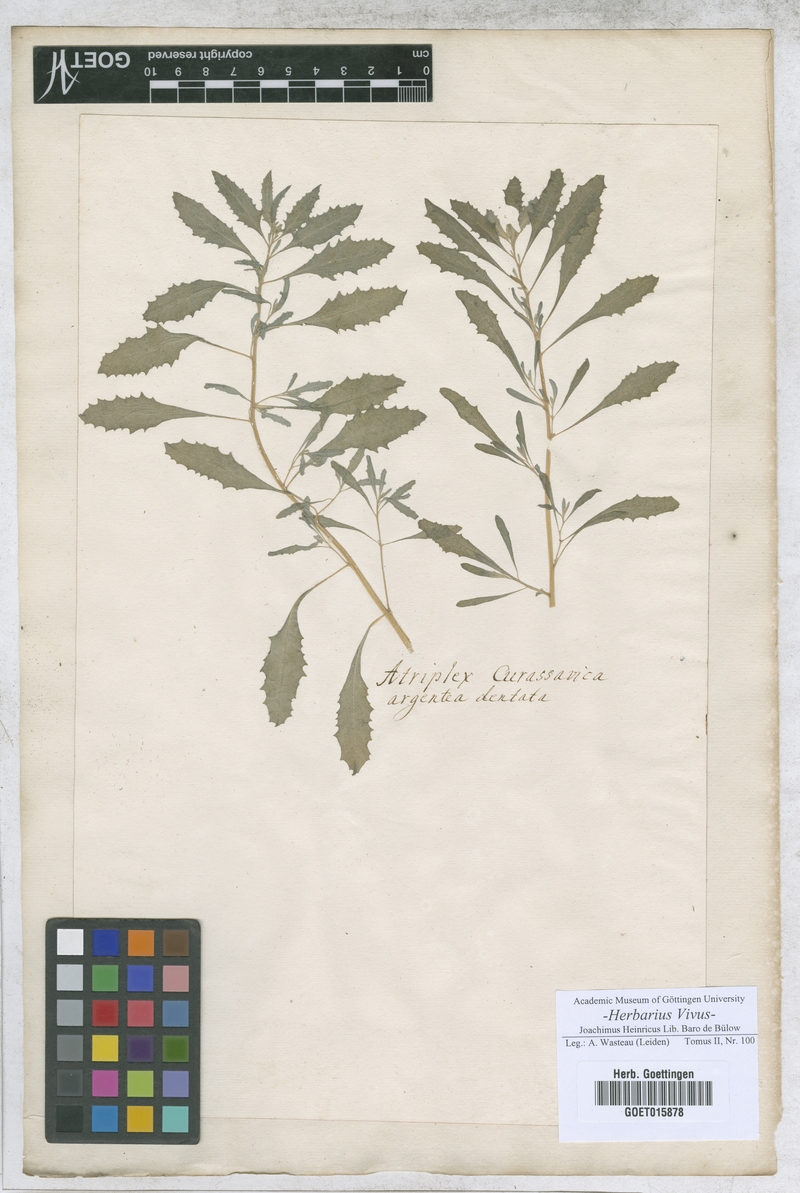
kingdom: Plantae
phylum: Tracheophyta
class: Magnoliopsida
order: Caryophyllales
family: Amaranthaceae
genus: Atriplex
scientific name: Atriplex
